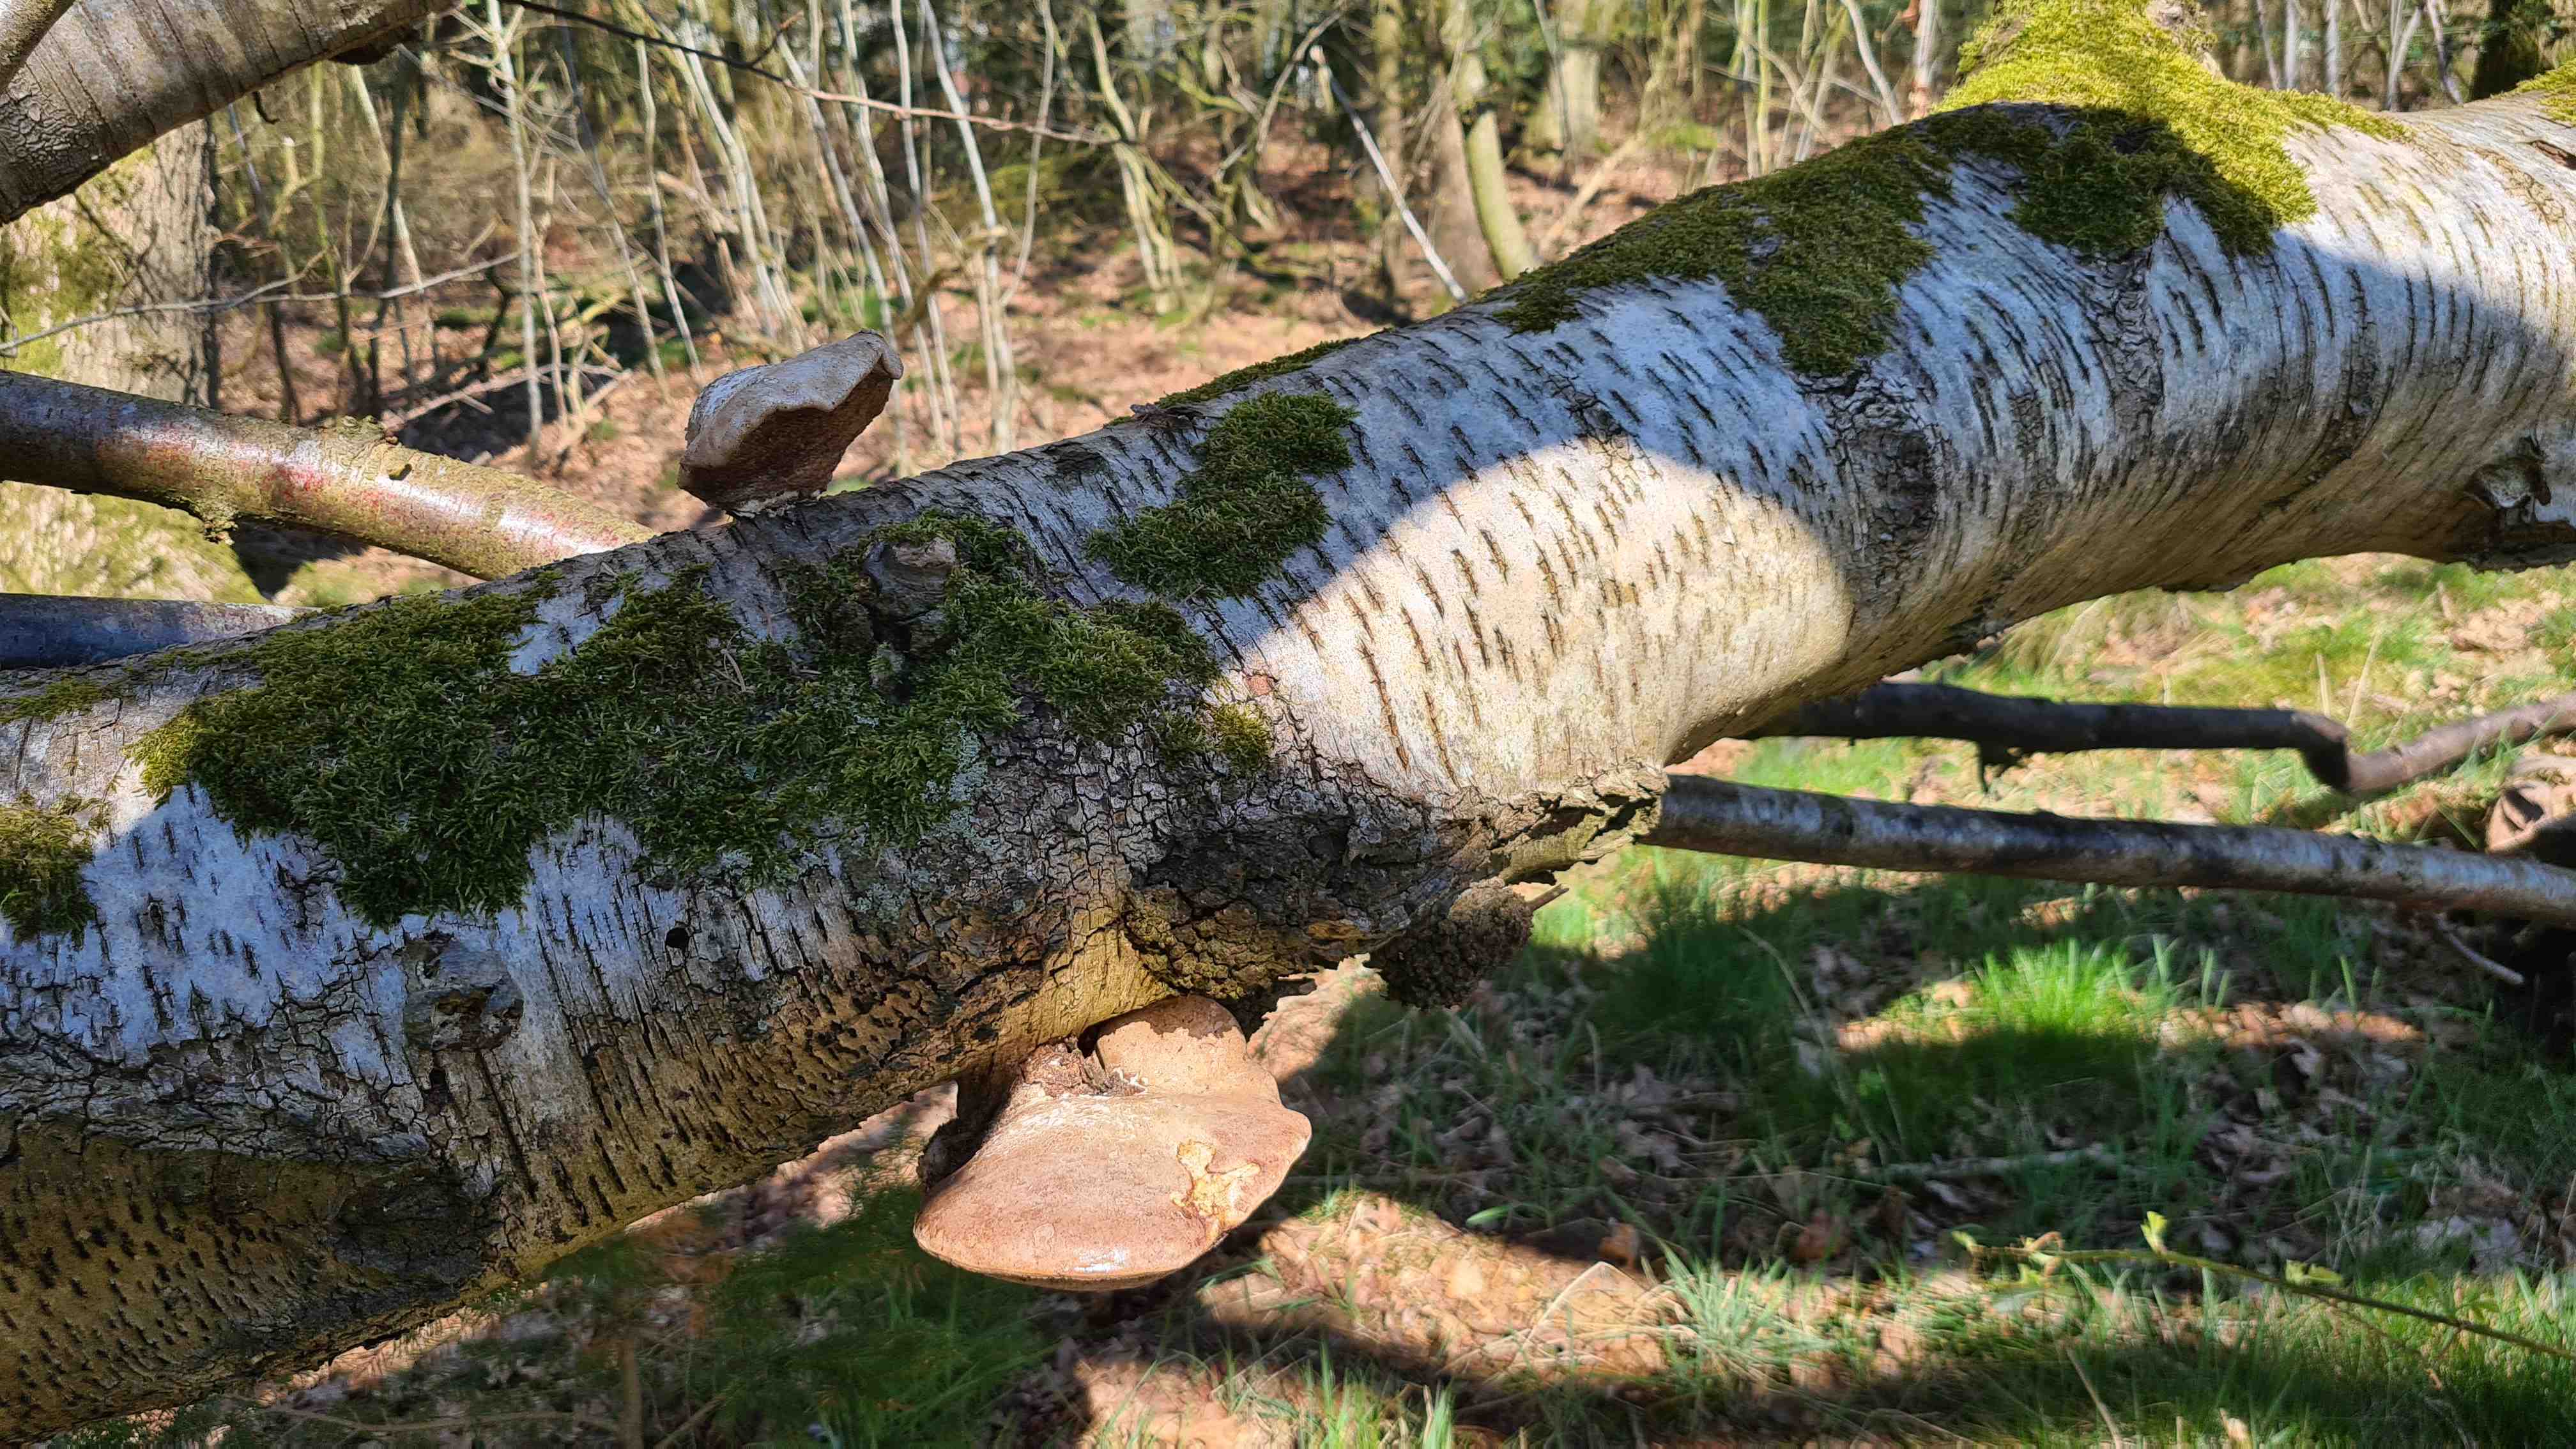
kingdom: Fungi
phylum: Basidiomycota
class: Agaricomycetes
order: Polyporales
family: Fomitopsidaceae
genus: Fomitopsis
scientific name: Fomitopsis betulina
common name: birkeporesvamp
